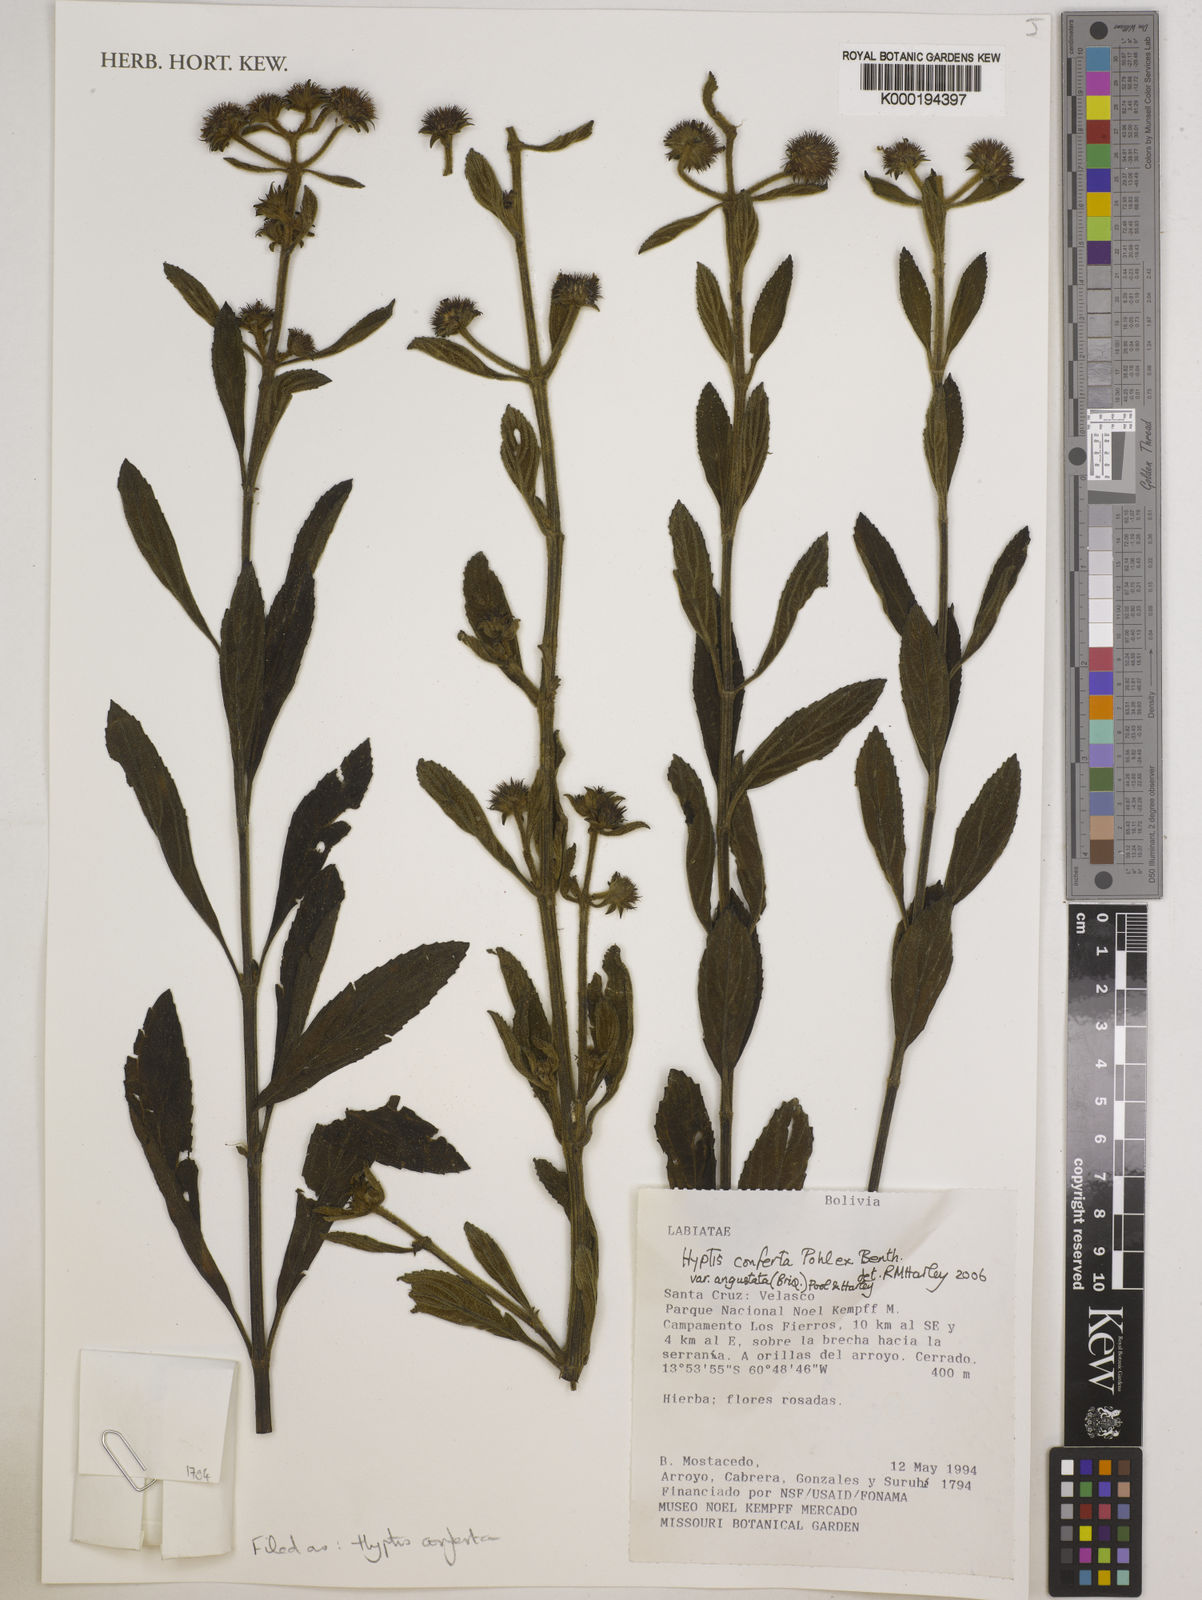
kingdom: Plantae
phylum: Tracheophyta
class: Magnoliopsida
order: Lamiales
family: Lamiaceae
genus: Hyptis
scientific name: Hyptis conferta
